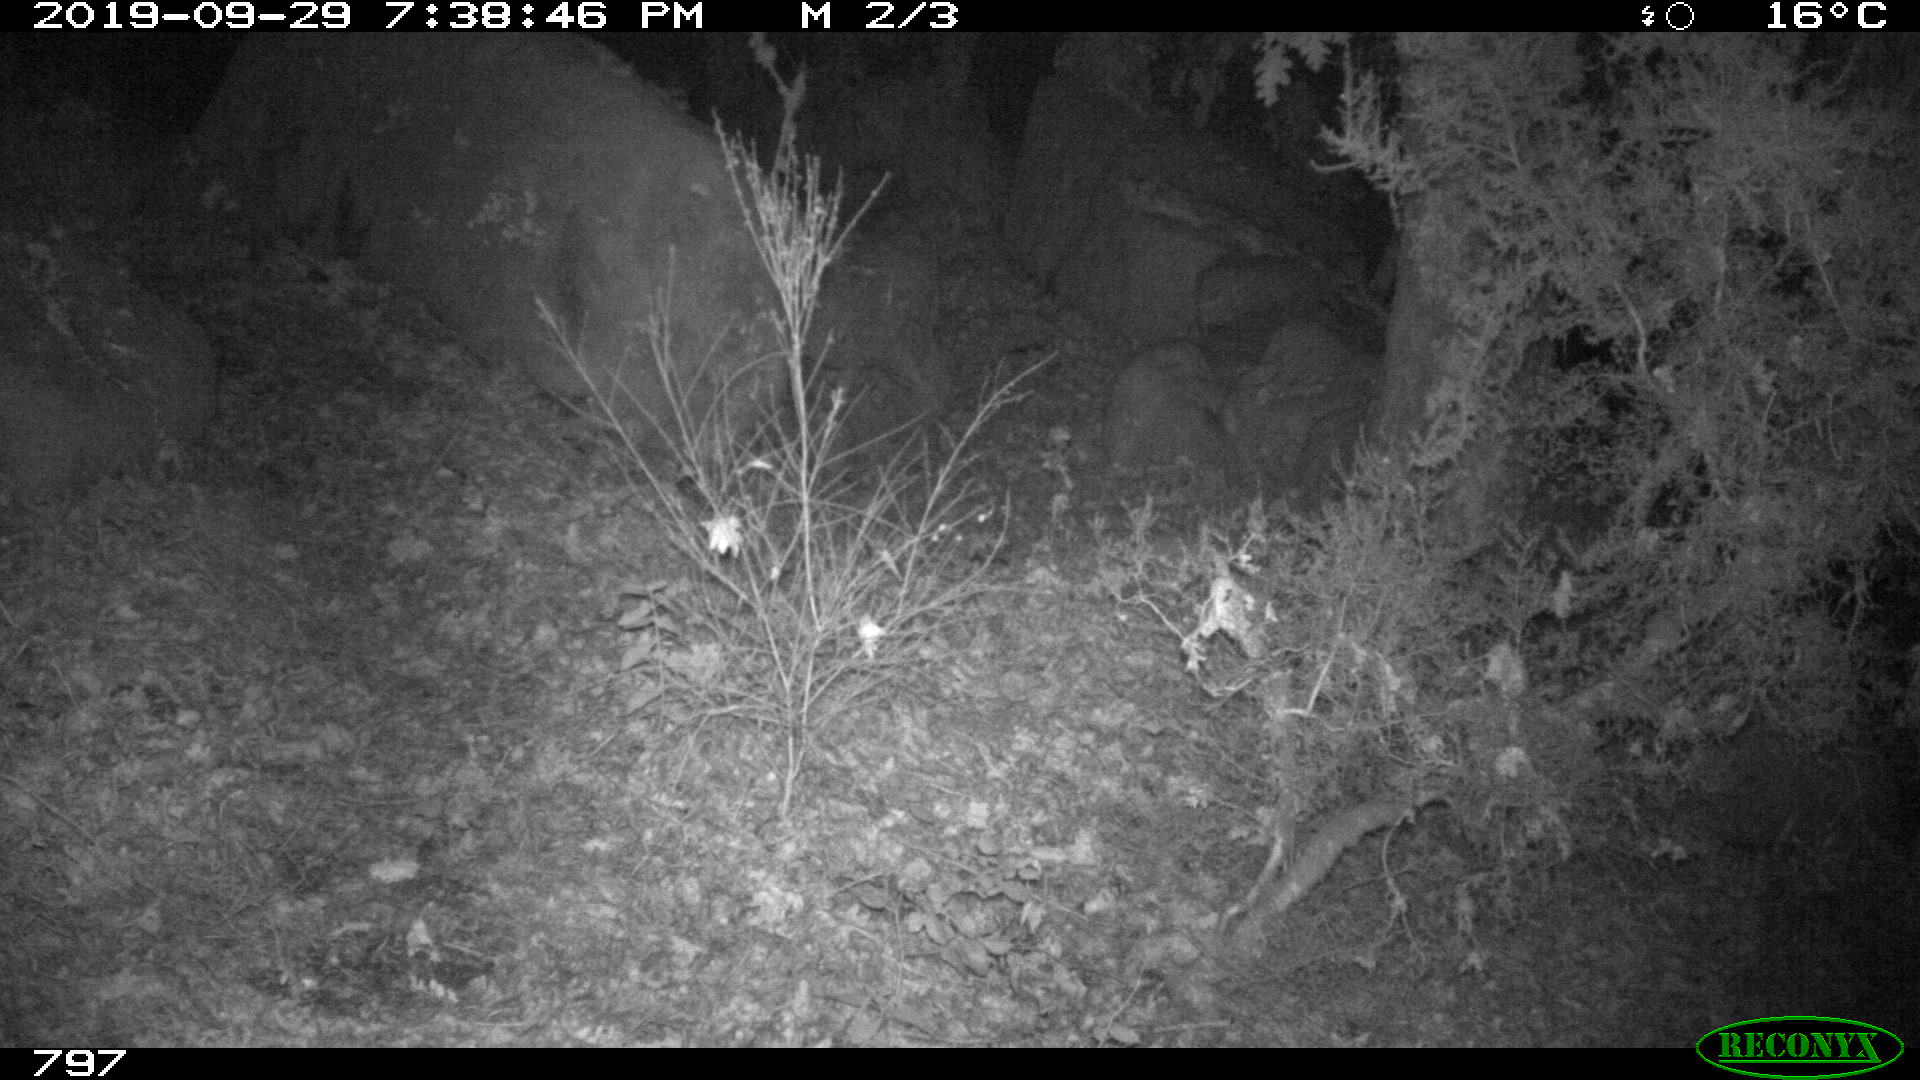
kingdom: Animalia
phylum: Chordata
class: Mammalia
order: Artiodactyla
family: Suidae
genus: Sus
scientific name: Sus scrofa
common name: Wild boar
